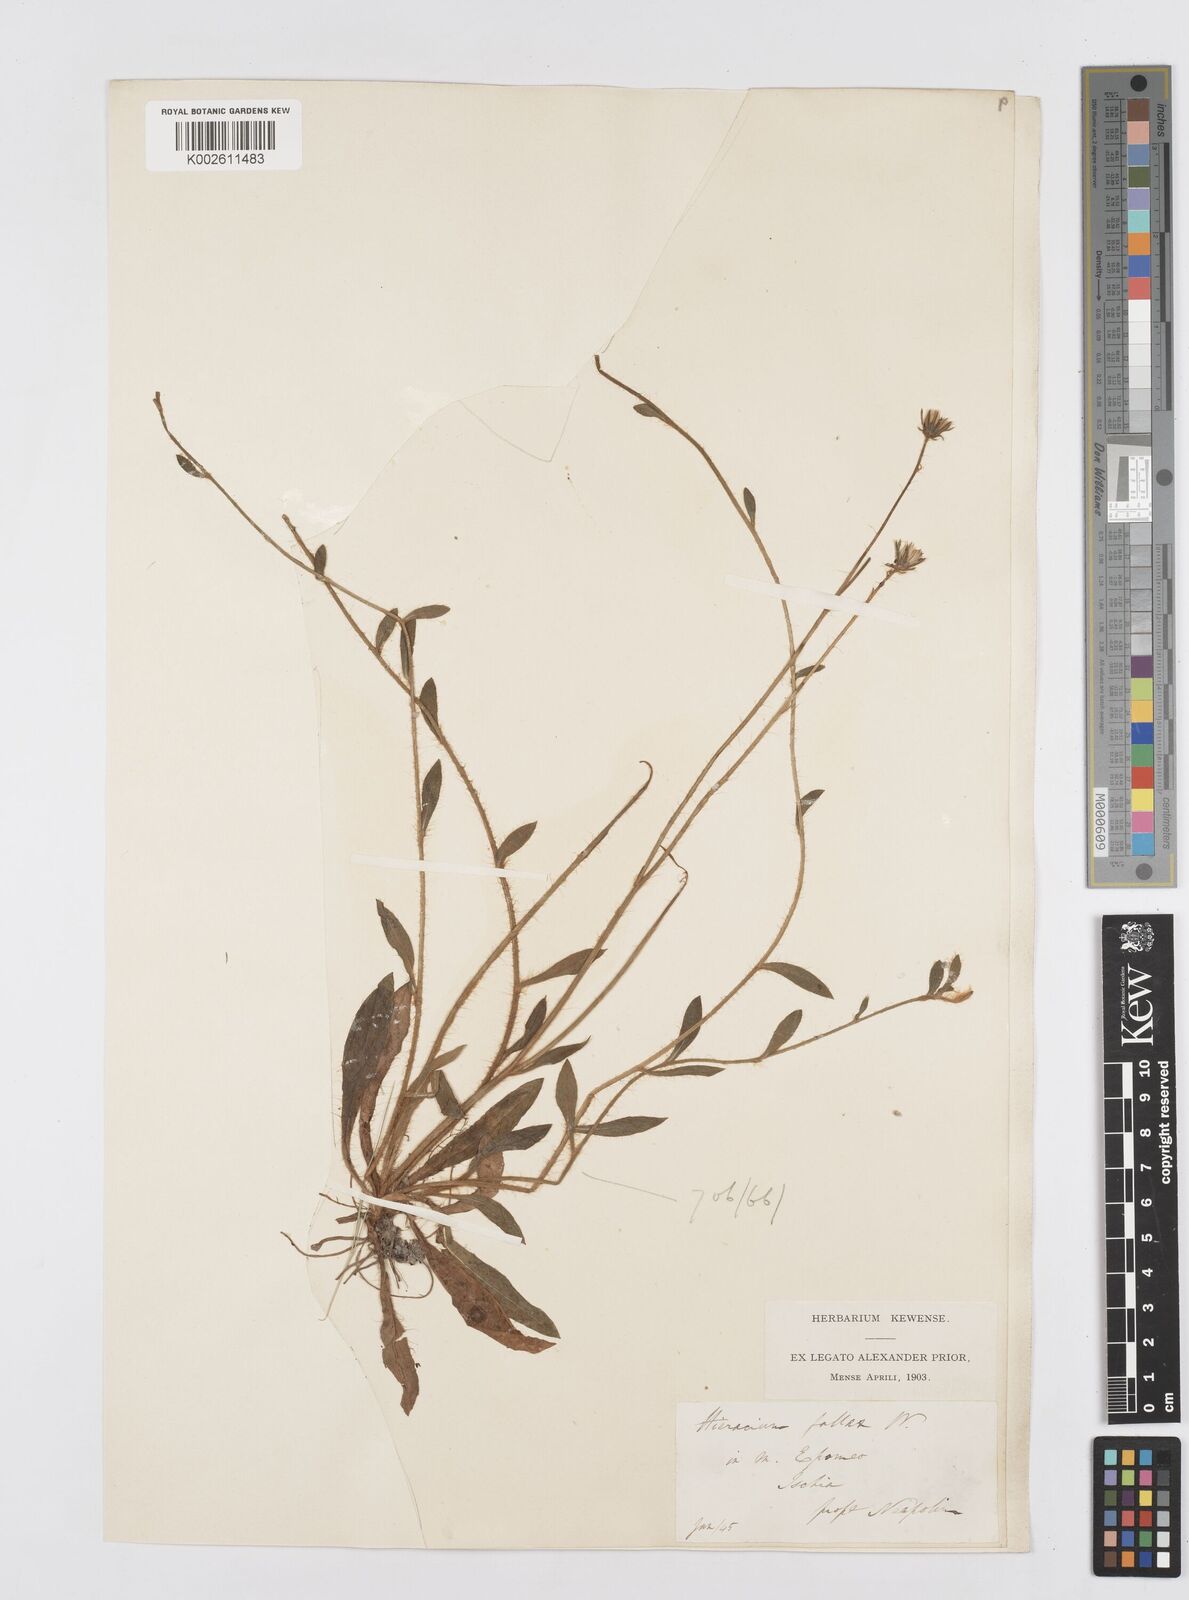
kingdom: Plantae
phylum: Tracheophyta
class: Magnoliopsida
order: Asterales
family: Asteraceae
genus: Pilosella
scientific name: Pilosella acutifolia
